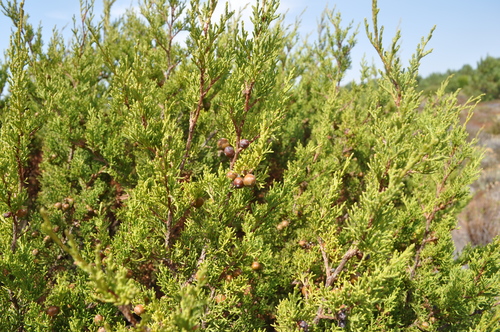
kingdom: Plantae
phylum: Tracheophyta
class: Pinopsida
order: Pinales
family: Cupressaceae
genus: Juniperus
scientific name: Juniperus phoenicea
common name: Phoenician juniper
